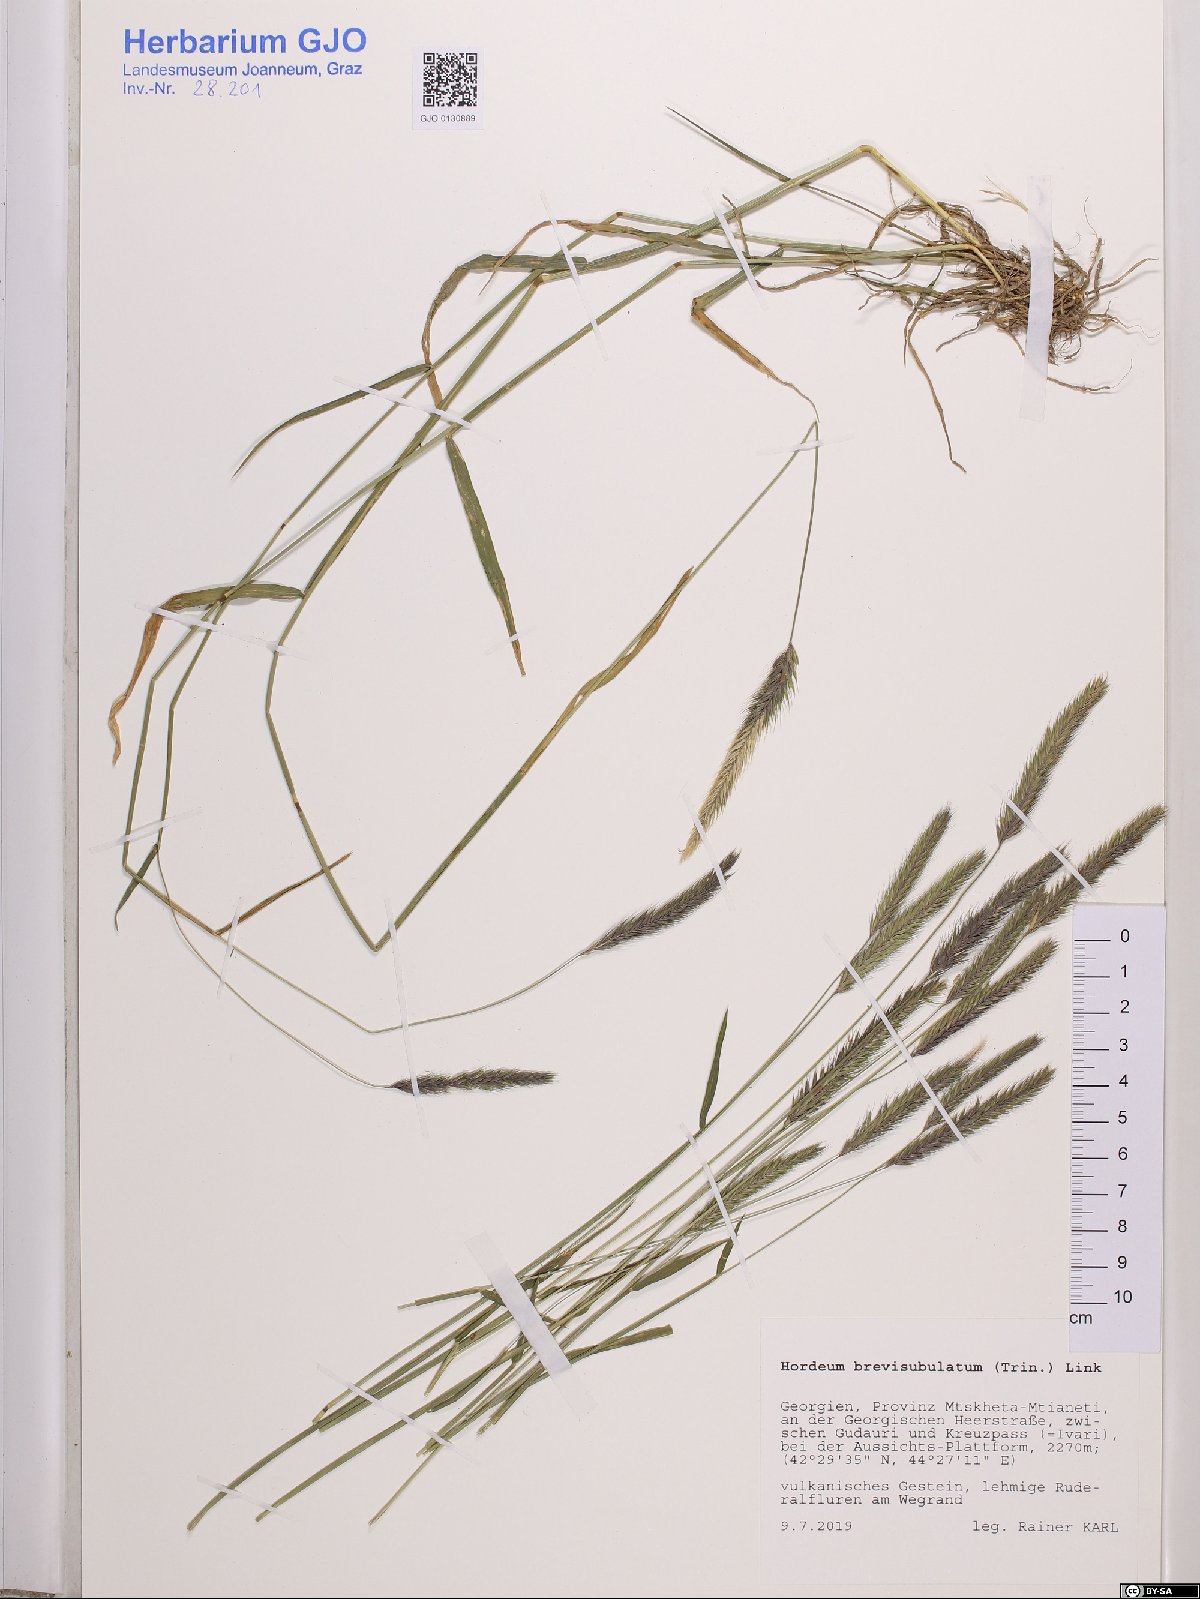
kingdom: Plantae
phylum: Tracheophyta
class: Liliopsida
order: Poales
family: Poaceae
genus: Hordeum
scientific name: Hordeum brevisubulatum
